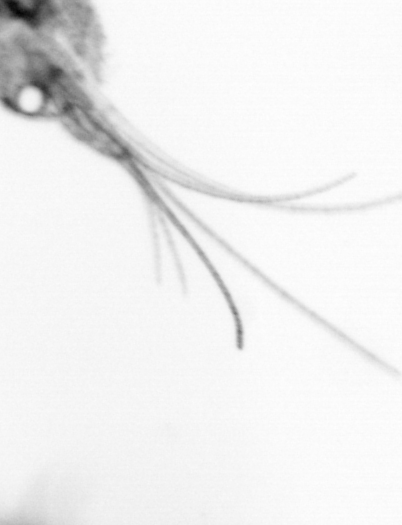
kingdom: Animalia
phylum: Arthropoda
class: Copepoda
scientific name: Copepoda
